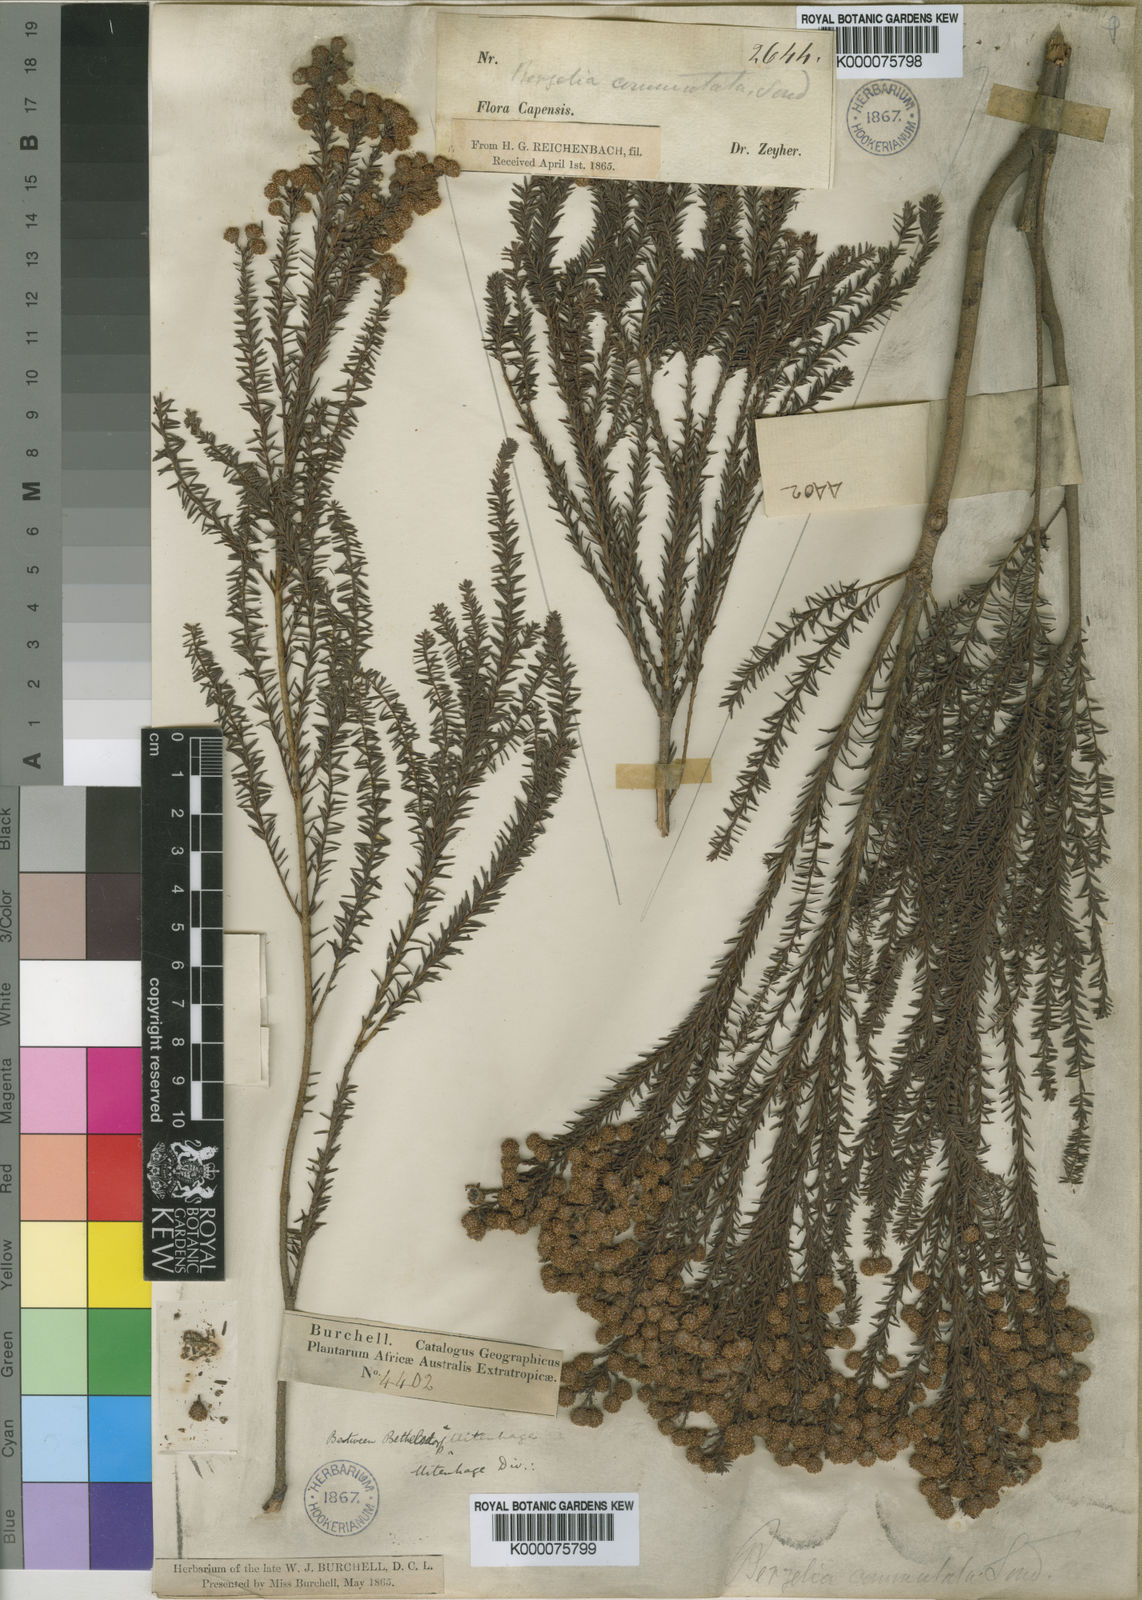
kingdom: Plantae
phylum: Tracheophyta
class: Magnoliopsida
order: Bruniales
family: Bruniaceae
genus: Berzelia
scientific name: Berzelia commutata
